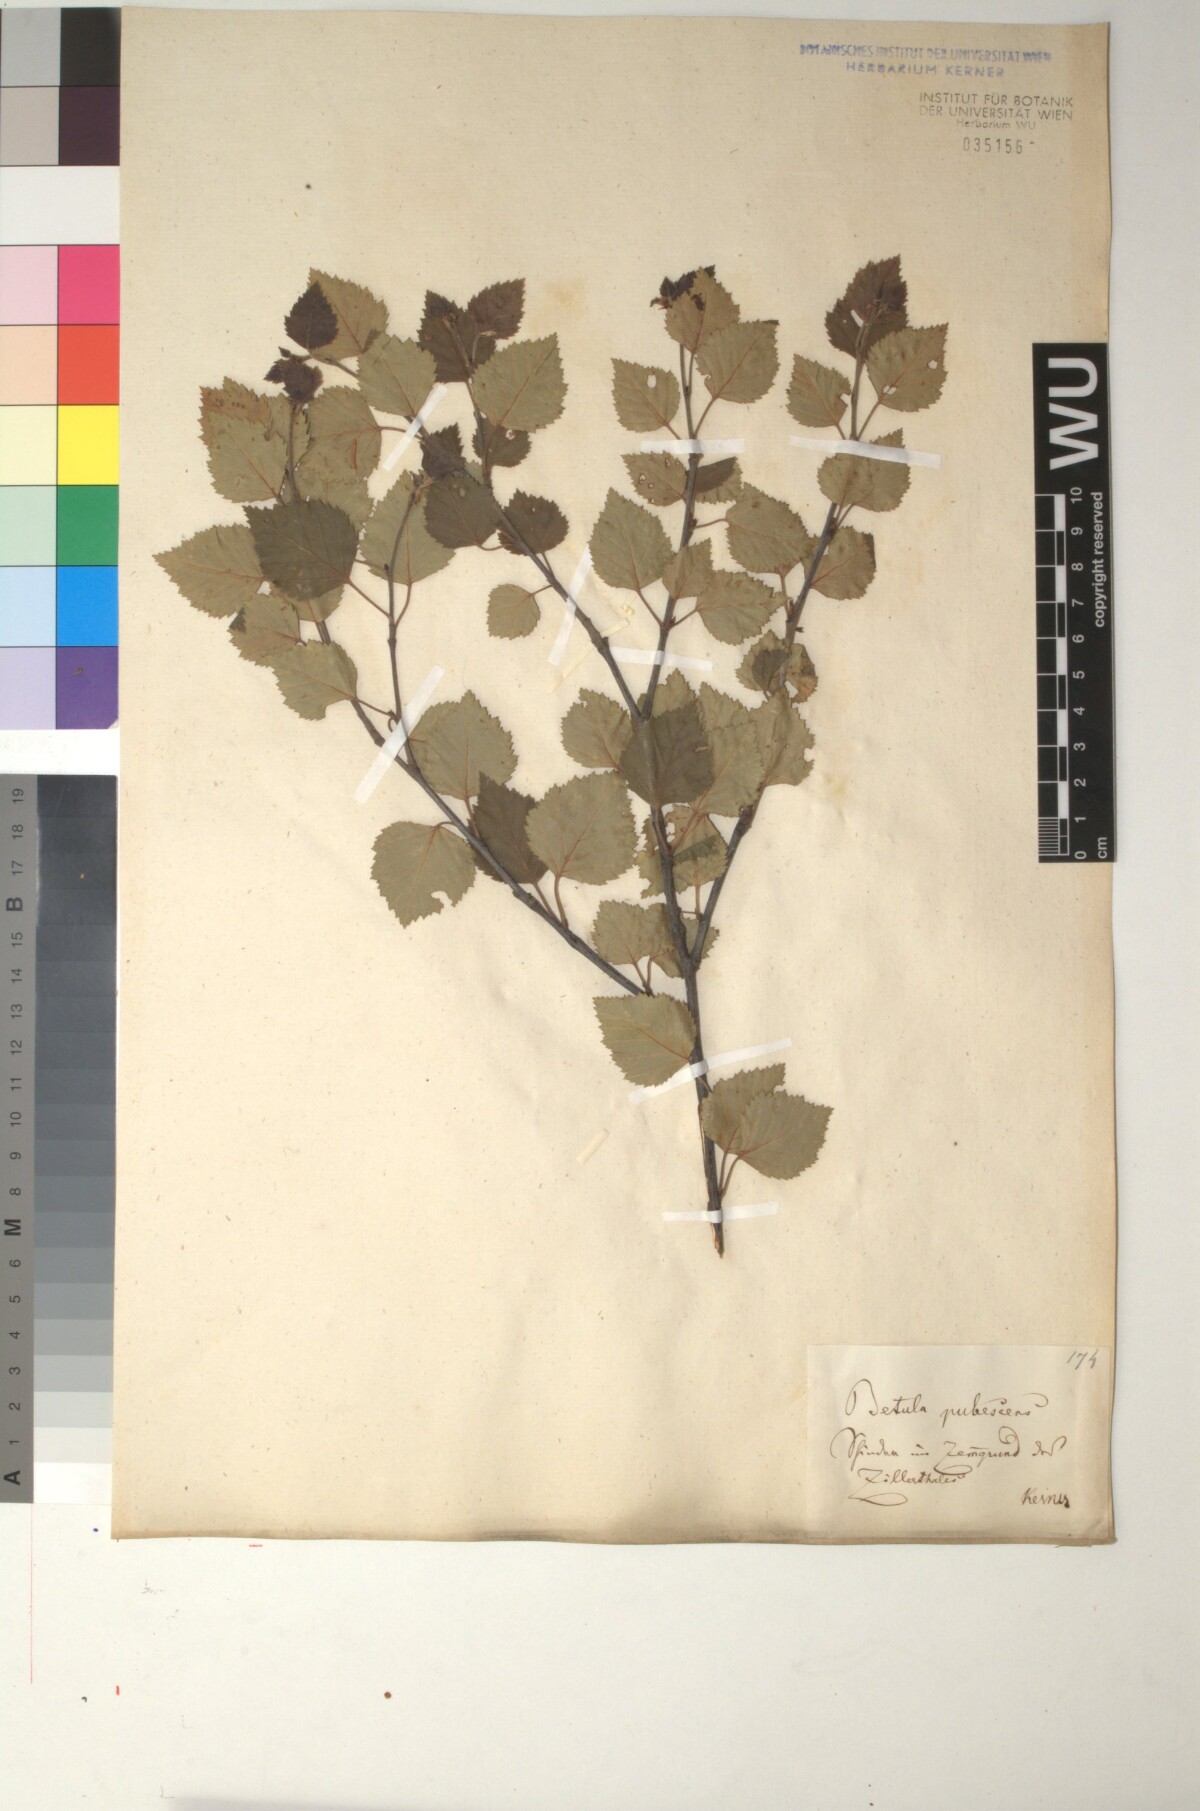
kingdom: Plantae
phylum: Tracheophyta
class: Magnoliopsida
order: Fagales
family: Betulaceae
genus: Betula
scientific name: Betula pubescens
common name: Downy birch
